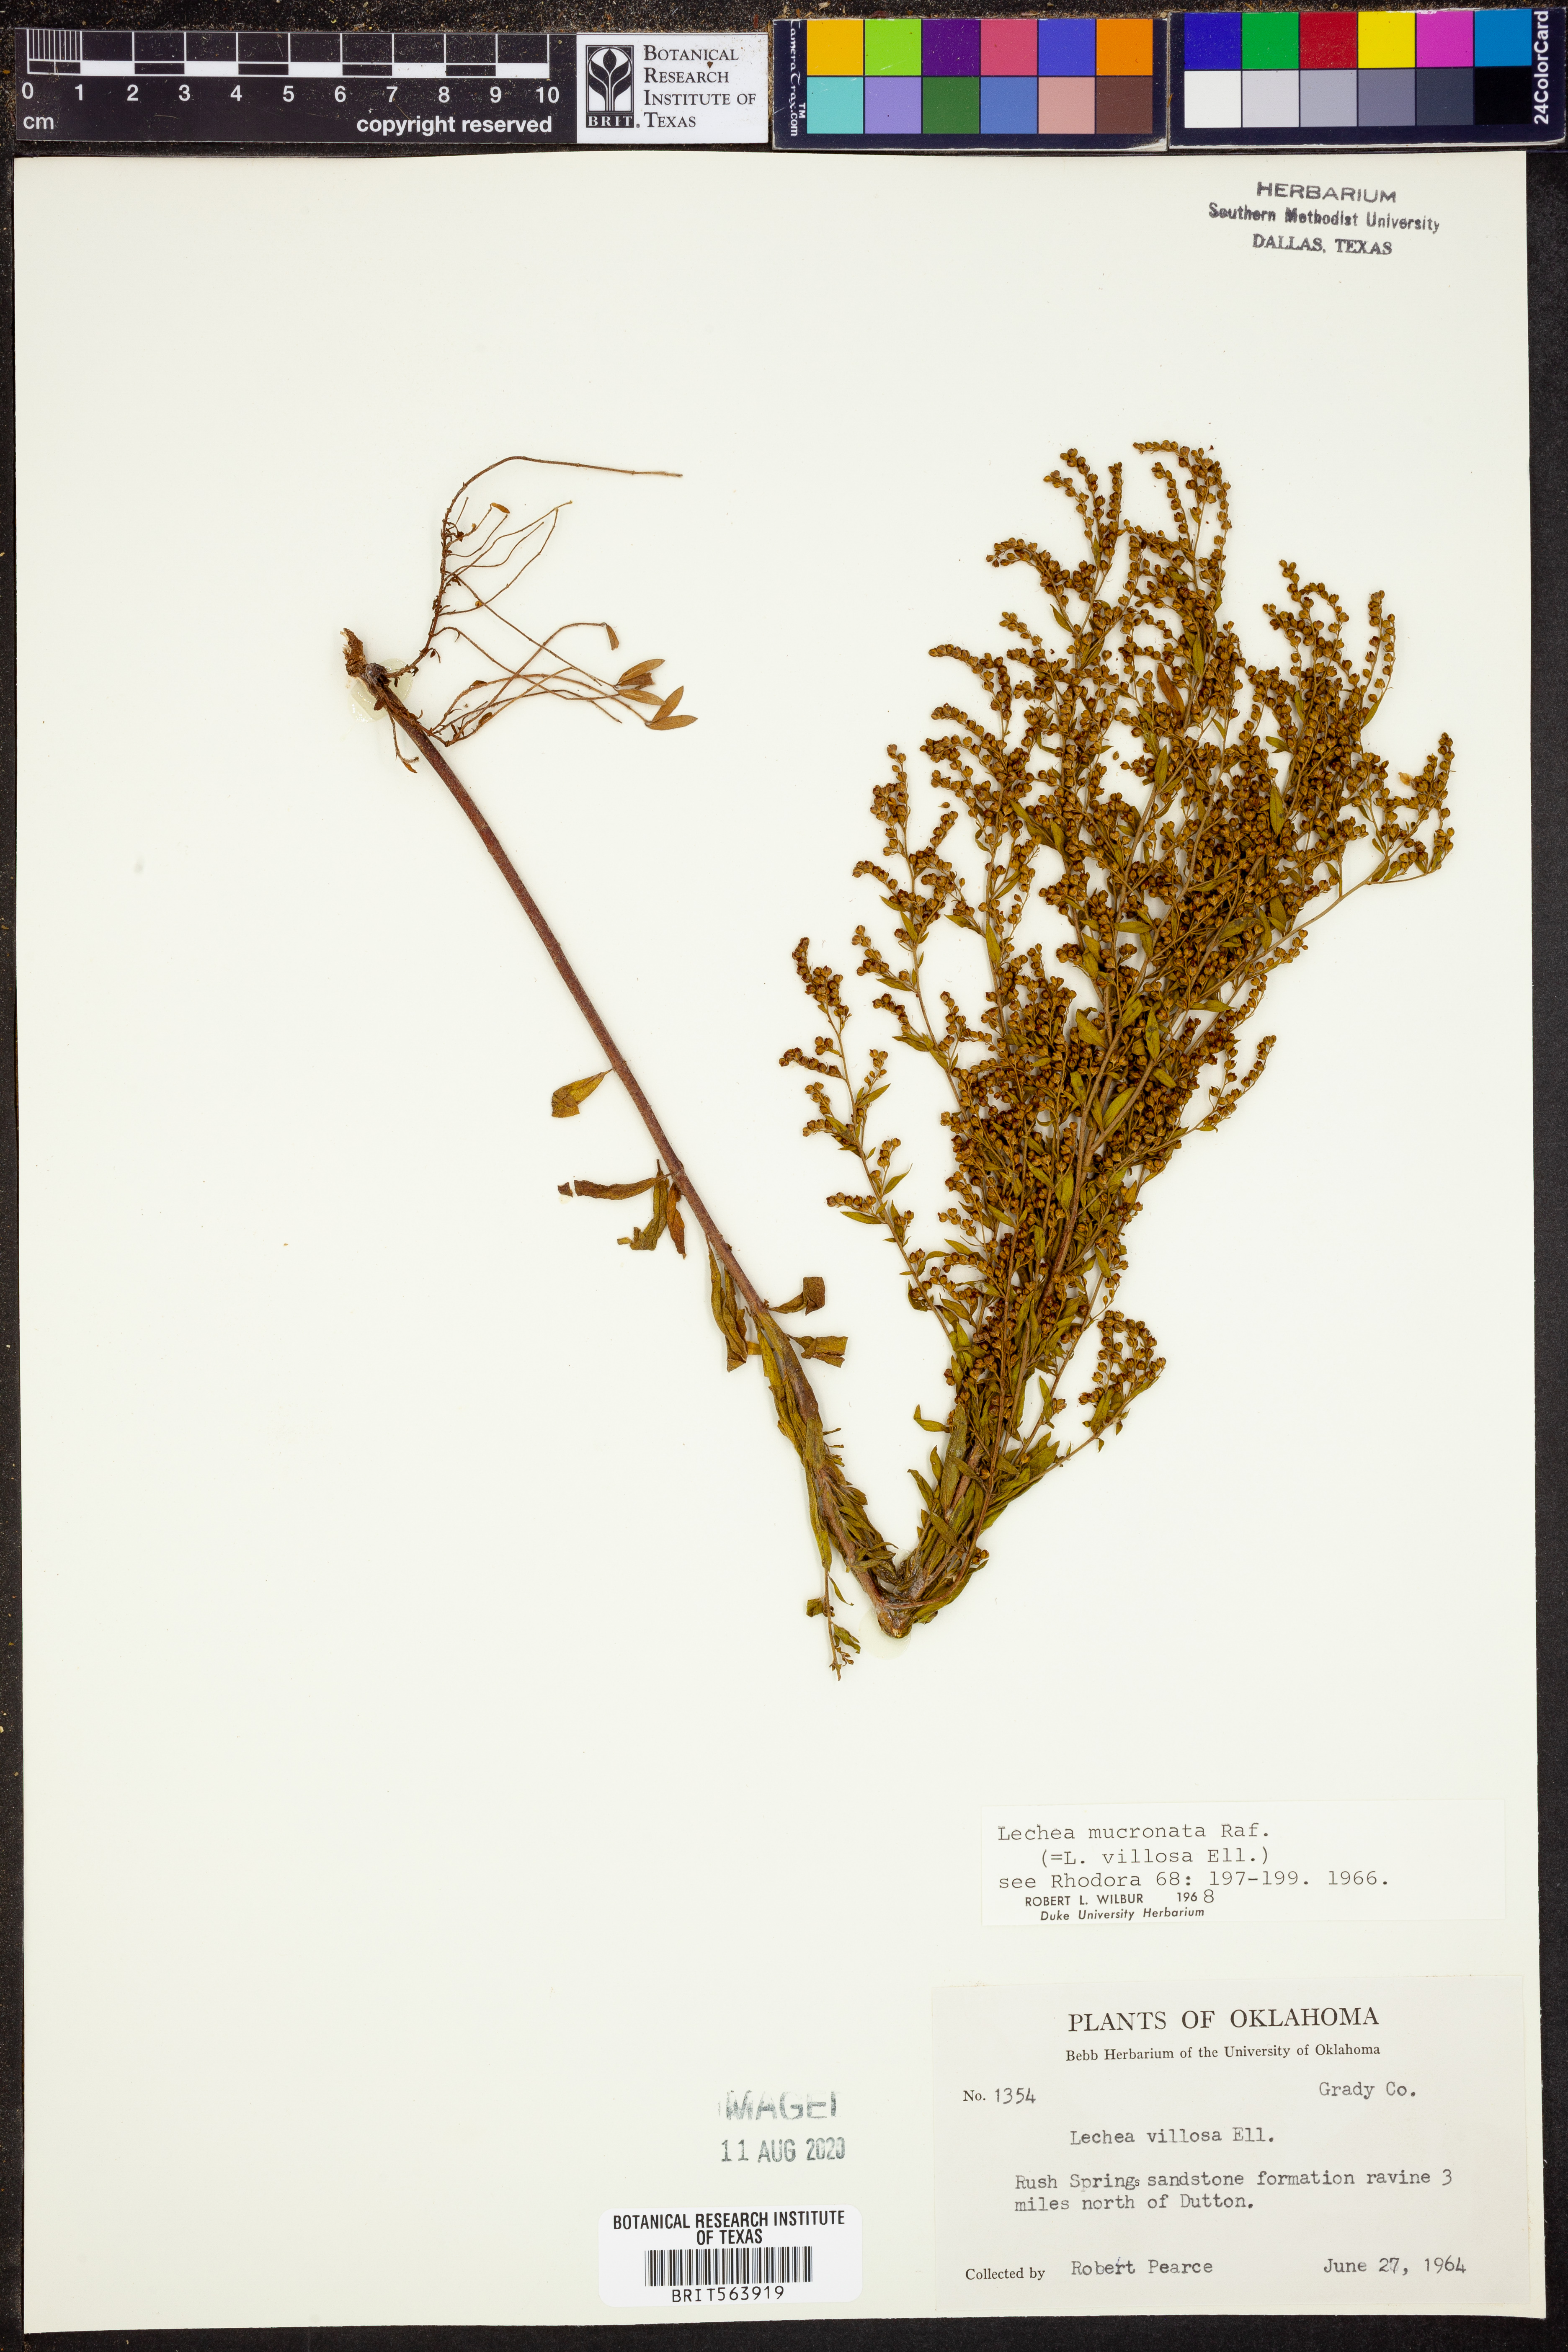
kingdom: Plantae
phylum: Tracheophyta
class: Magnoliopsida
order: Malvales
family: Cistaceae
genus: Lechea
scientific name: Lechea mucronata
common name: Hairy pinweed
